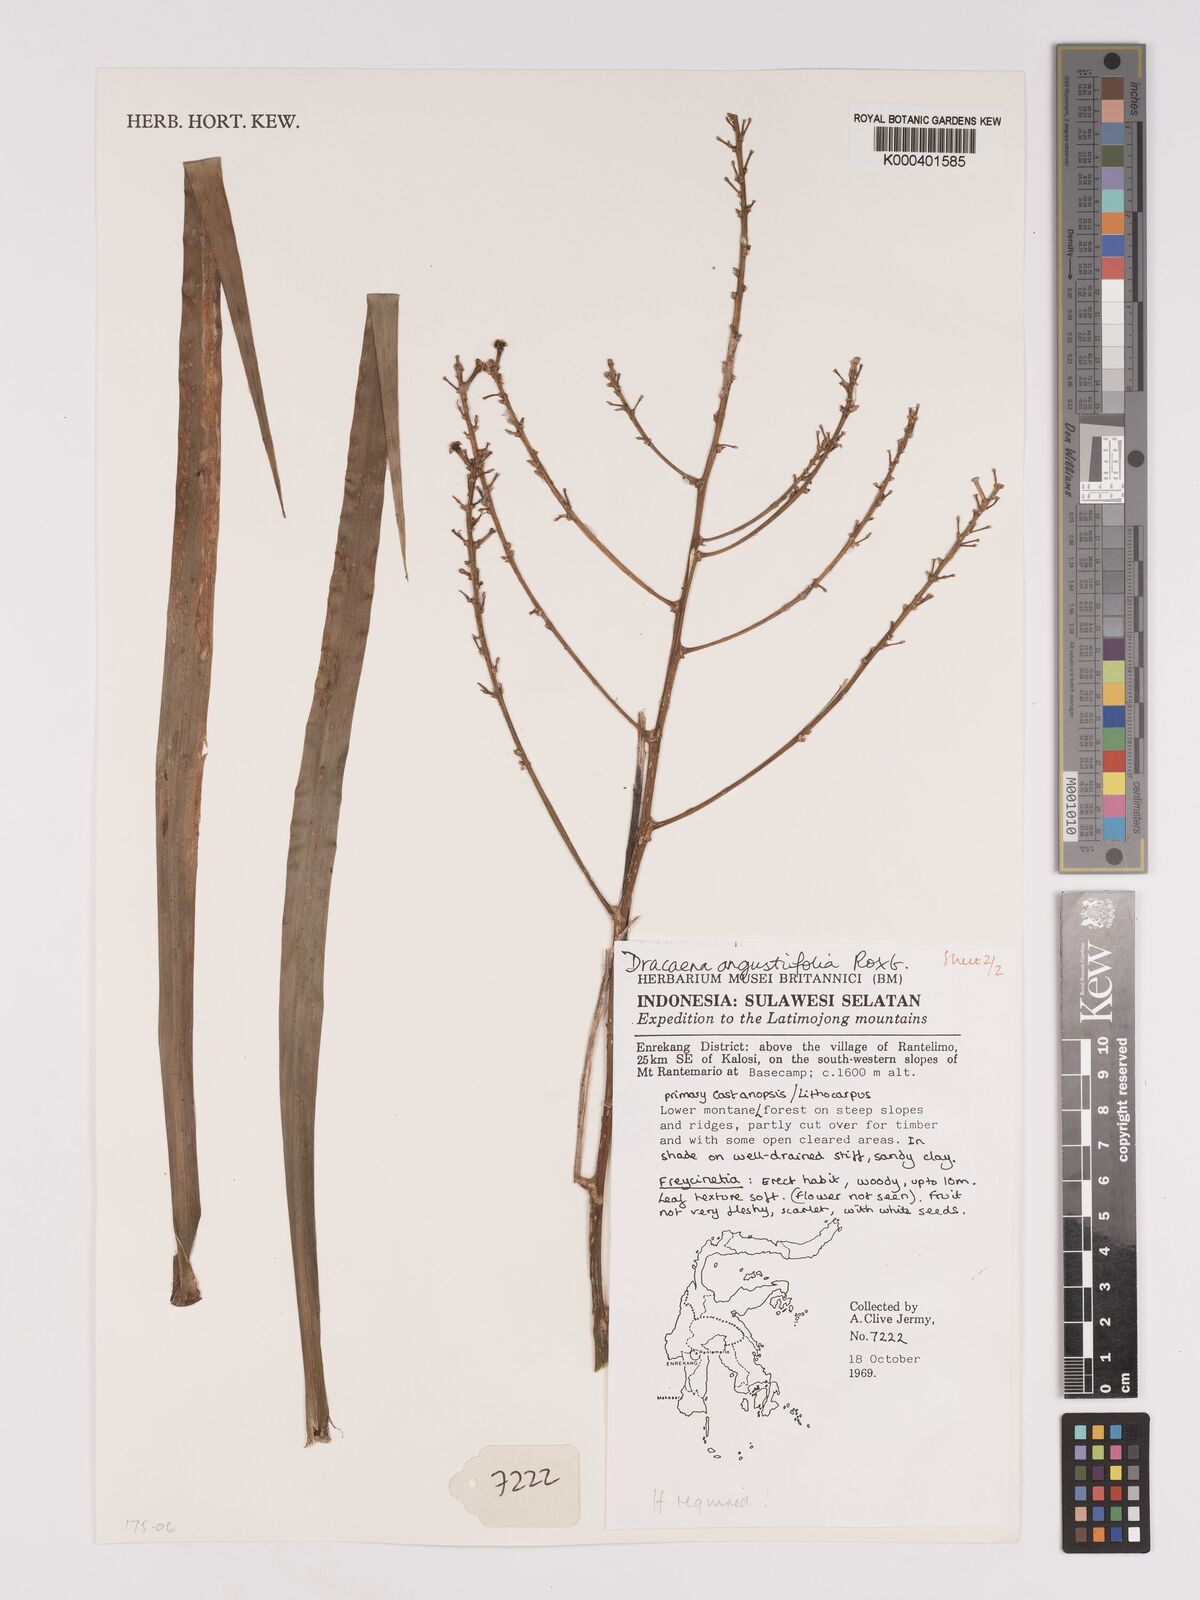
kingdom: Plantae
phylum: Tracheophyta
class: Liliopsida
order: Asparagales
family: Asparagaceae
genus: Dracaena
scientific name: Dracaena angustifolia
